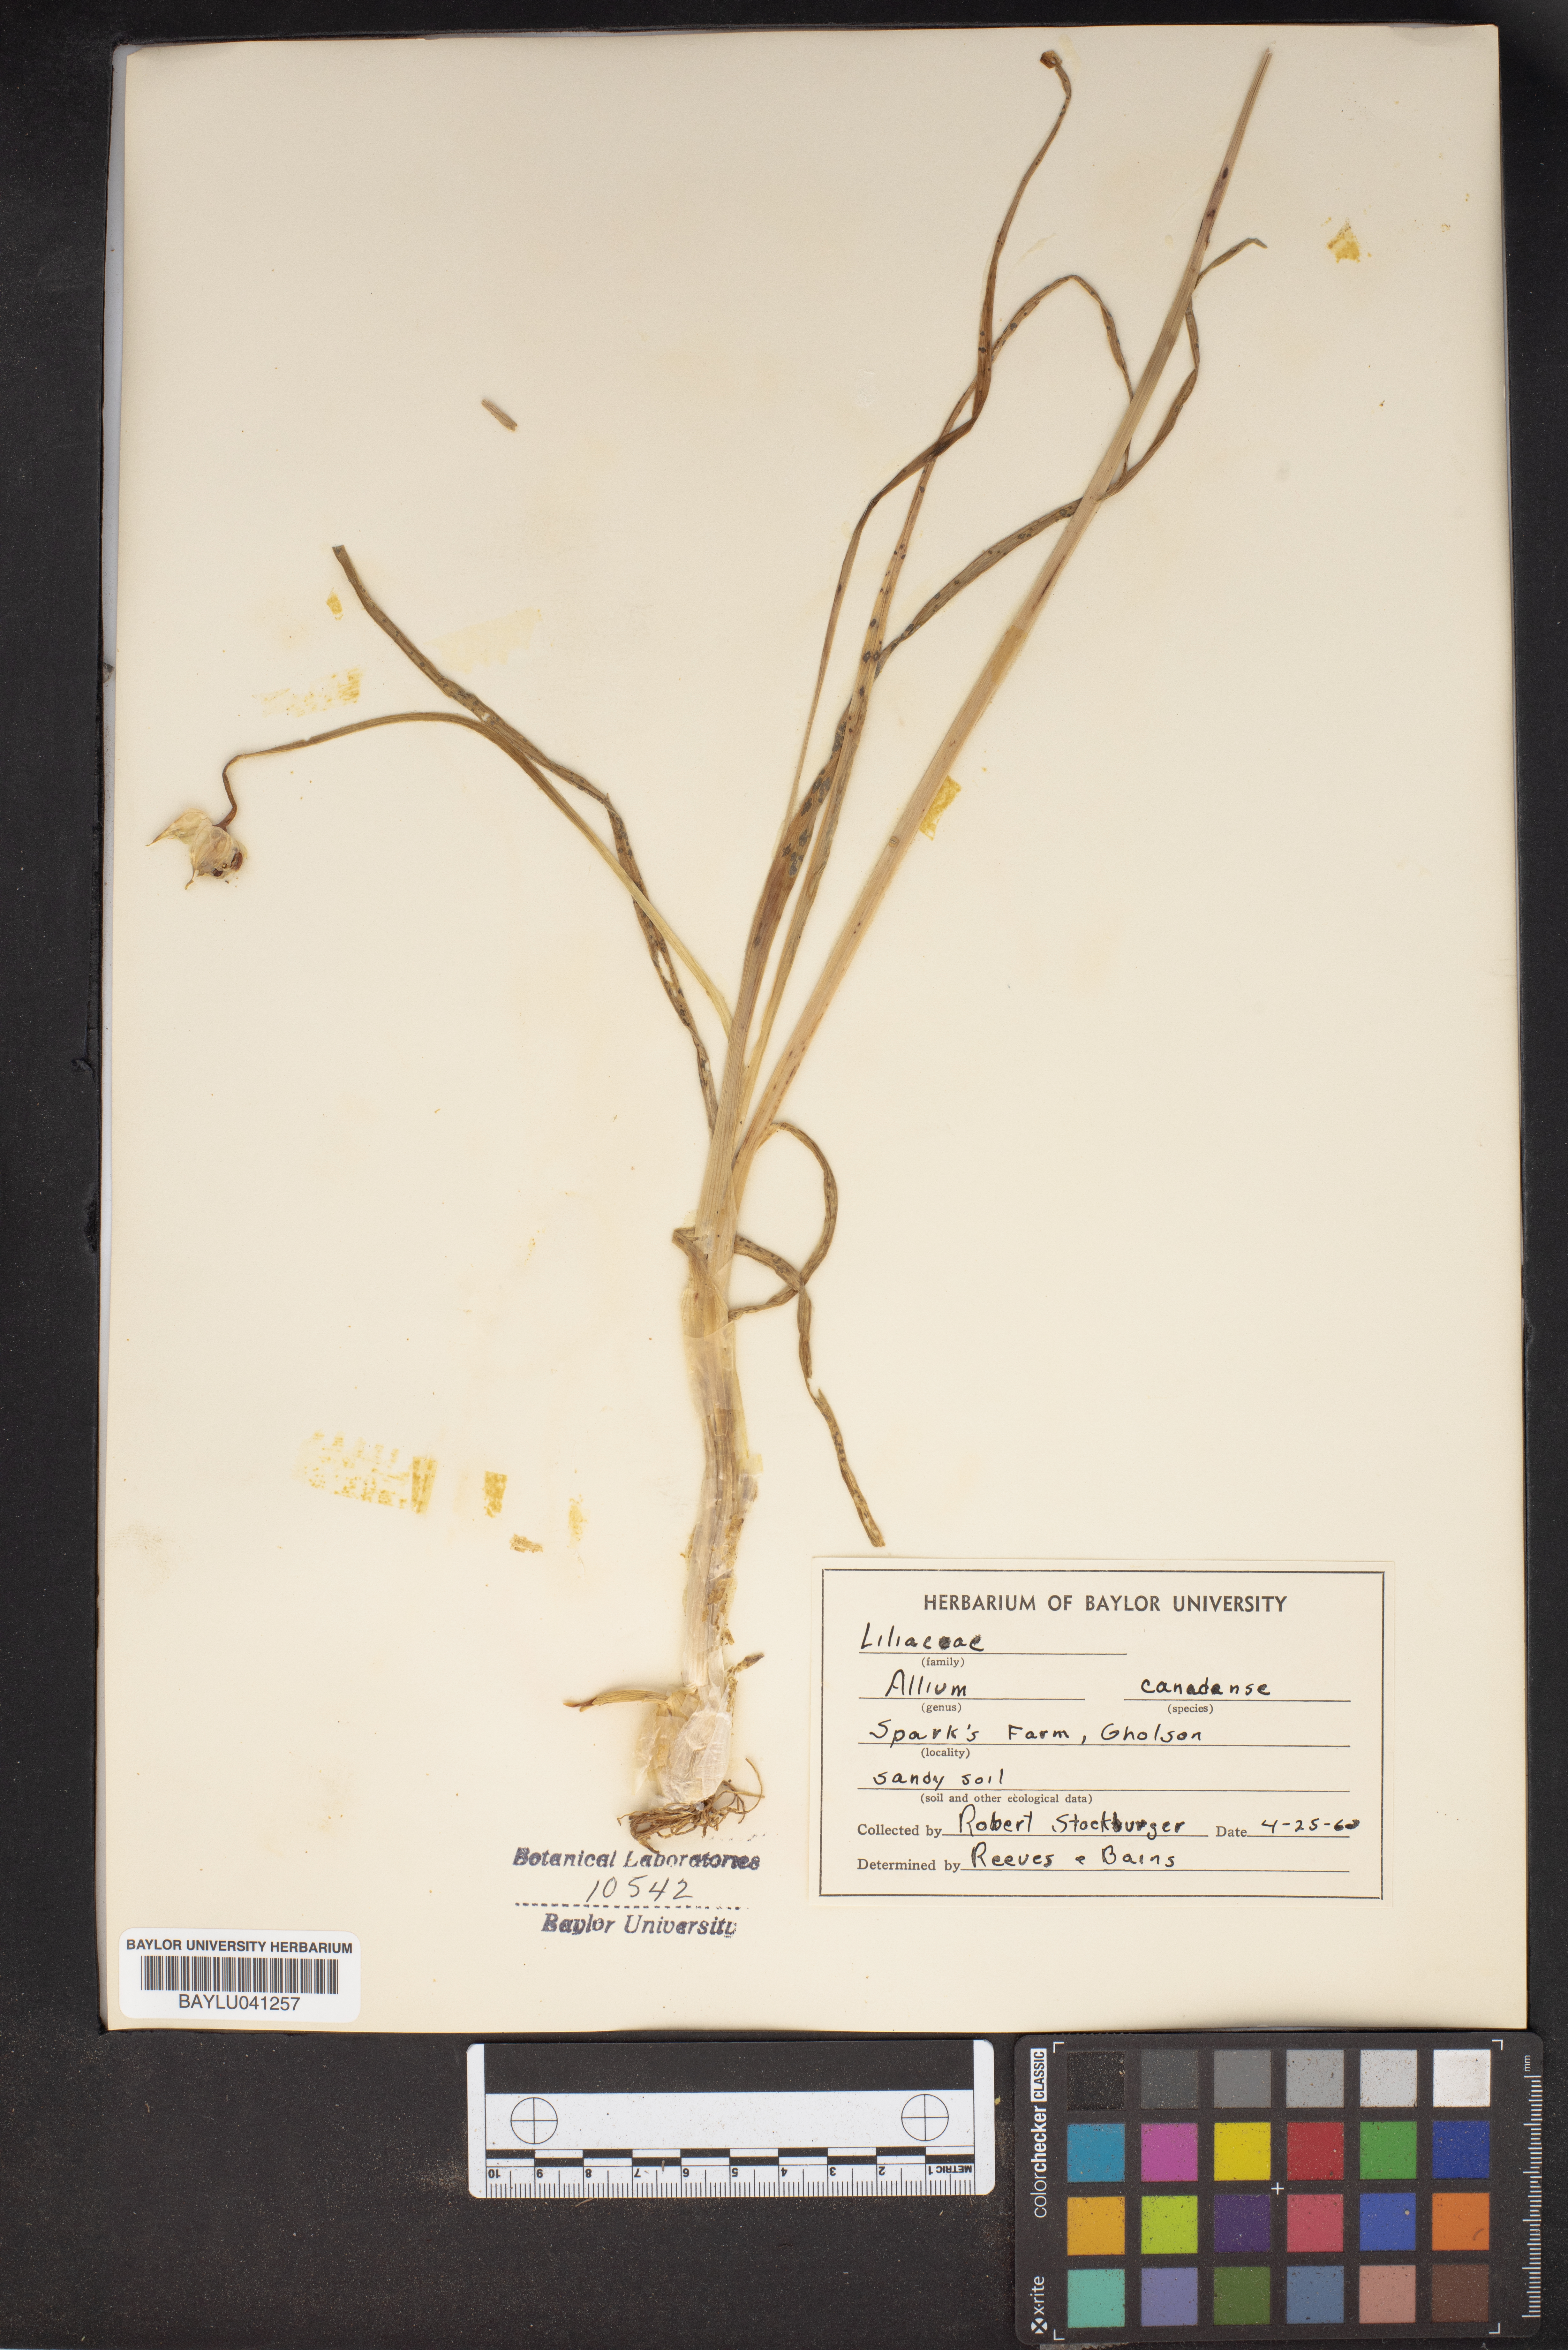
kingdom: Plantae
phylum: Tracheophyta
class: Liliopsida
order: Asparagales
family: Amaryllidaceae
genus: Allium
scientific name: Allium canadense
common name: Meadow garlic
